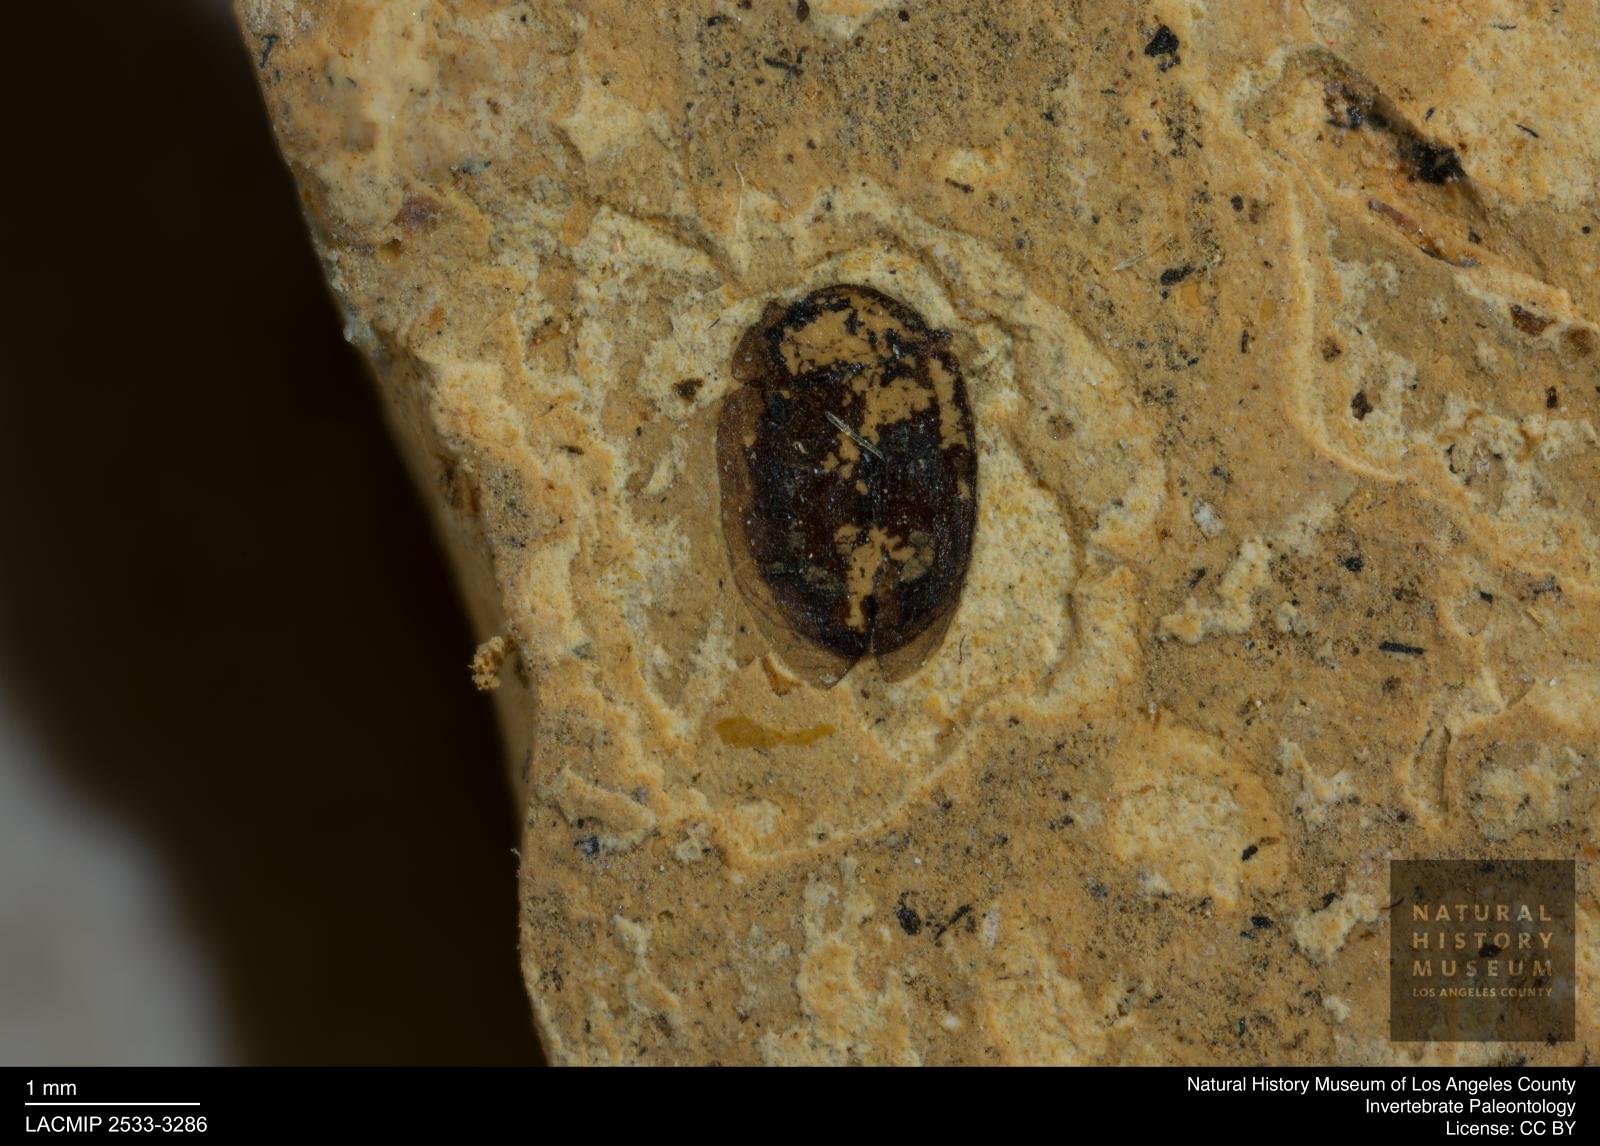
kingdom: Animalia
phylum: Arthropoda
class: Insecta
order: Diptera
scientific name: Diptera
